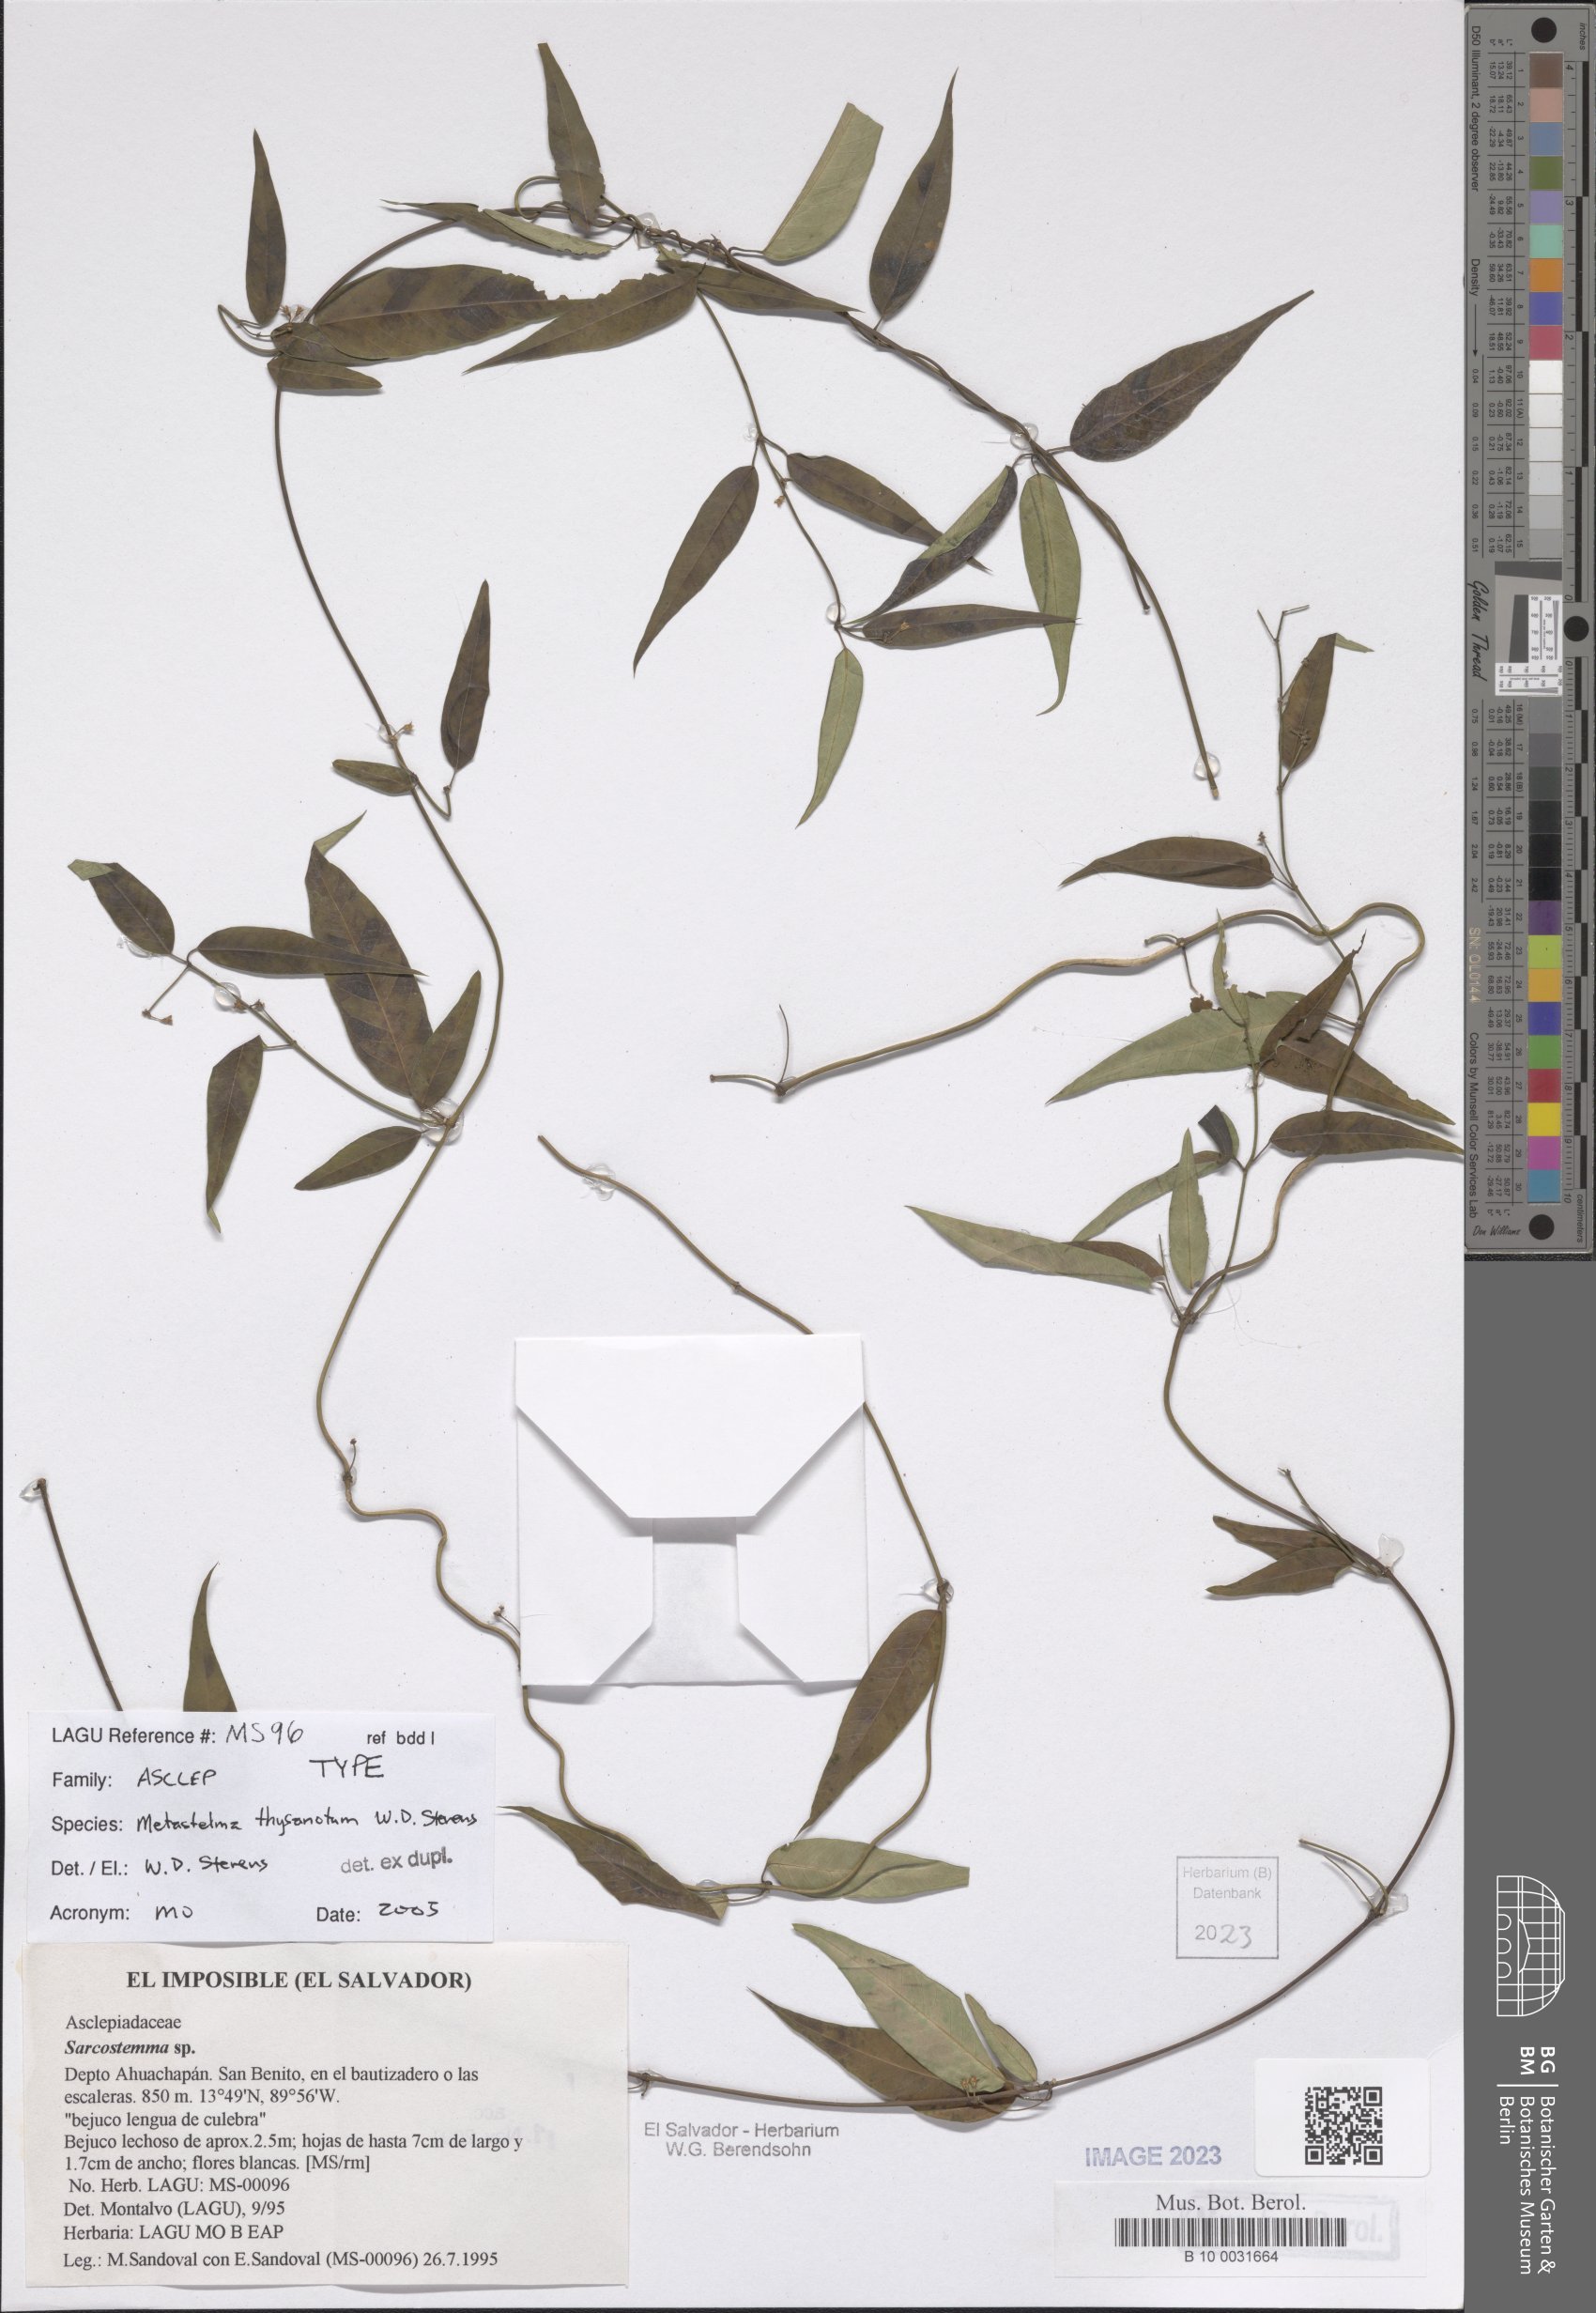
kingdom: Plantae
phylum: Tracheophyta
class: Magnoliopsida
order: Gentianales
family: Apocynaceae
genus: Metastelma
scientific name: Metastelma thysanotum
